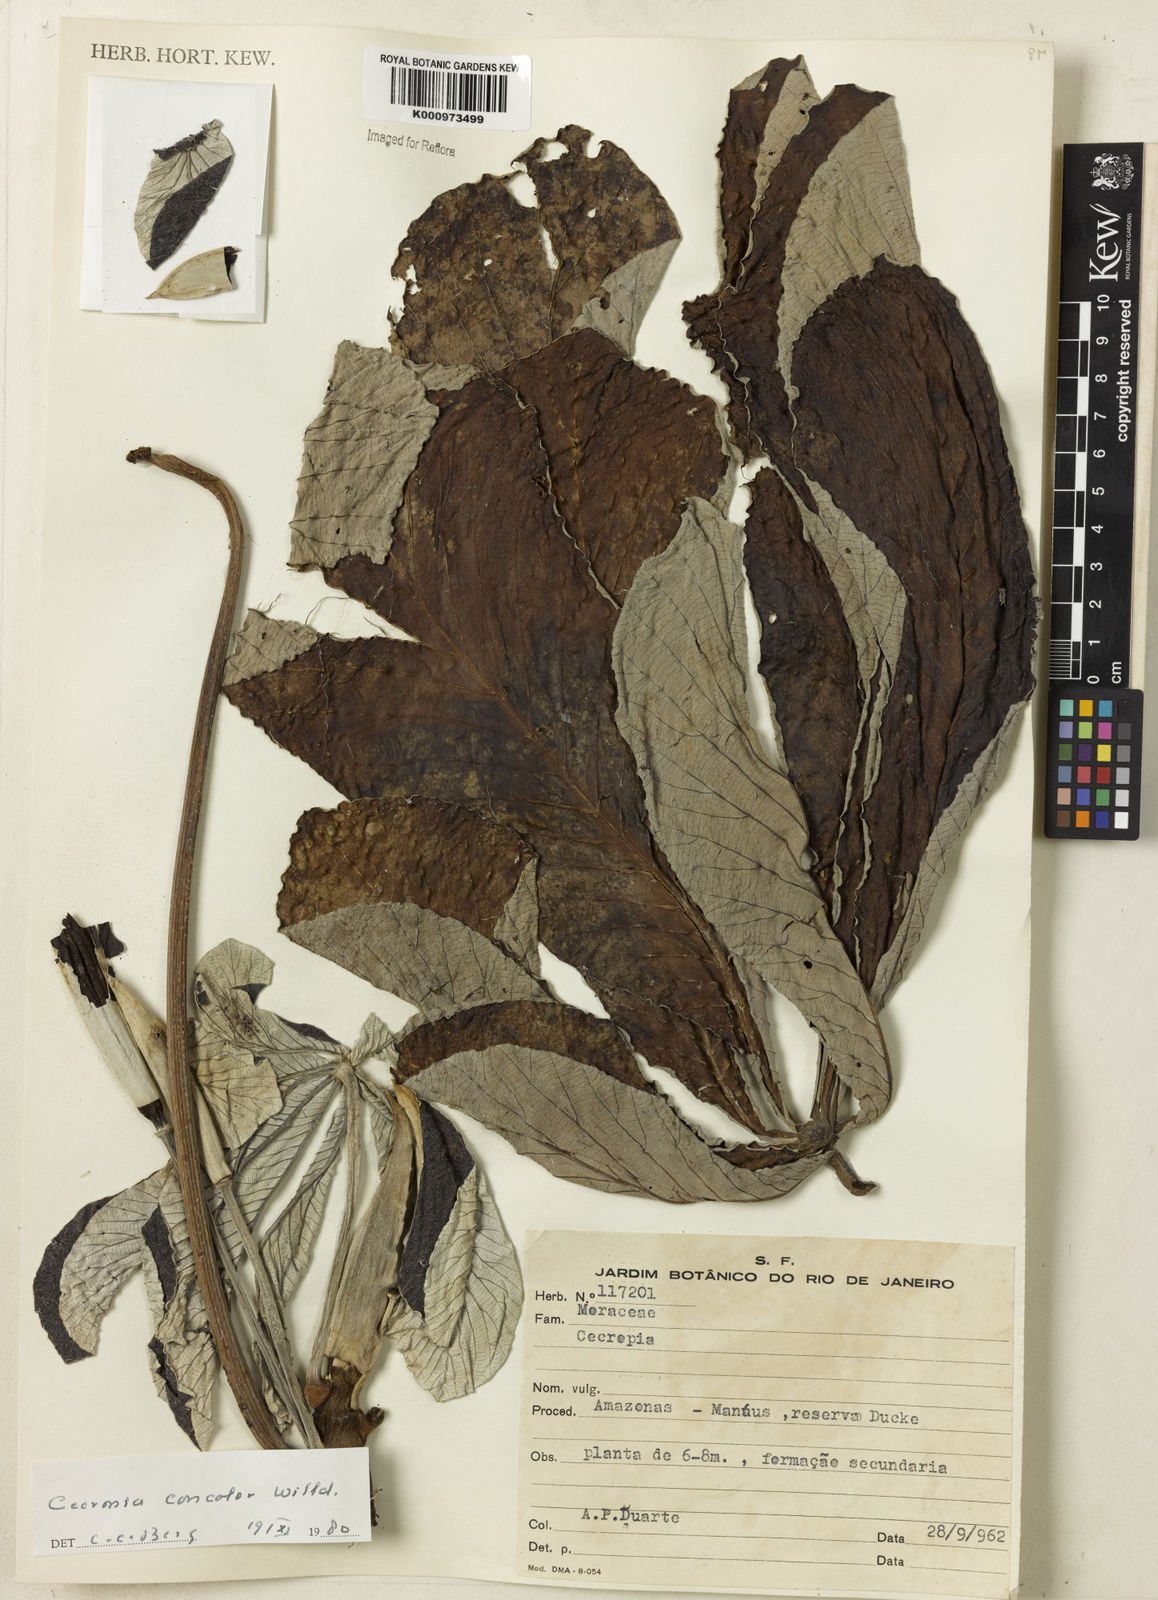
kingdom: Plantae
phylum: Tracheophyta
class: Magnoliopsida
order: Rosales
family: Urticaceae
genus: Cecropia
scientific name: Cecropia concolor
